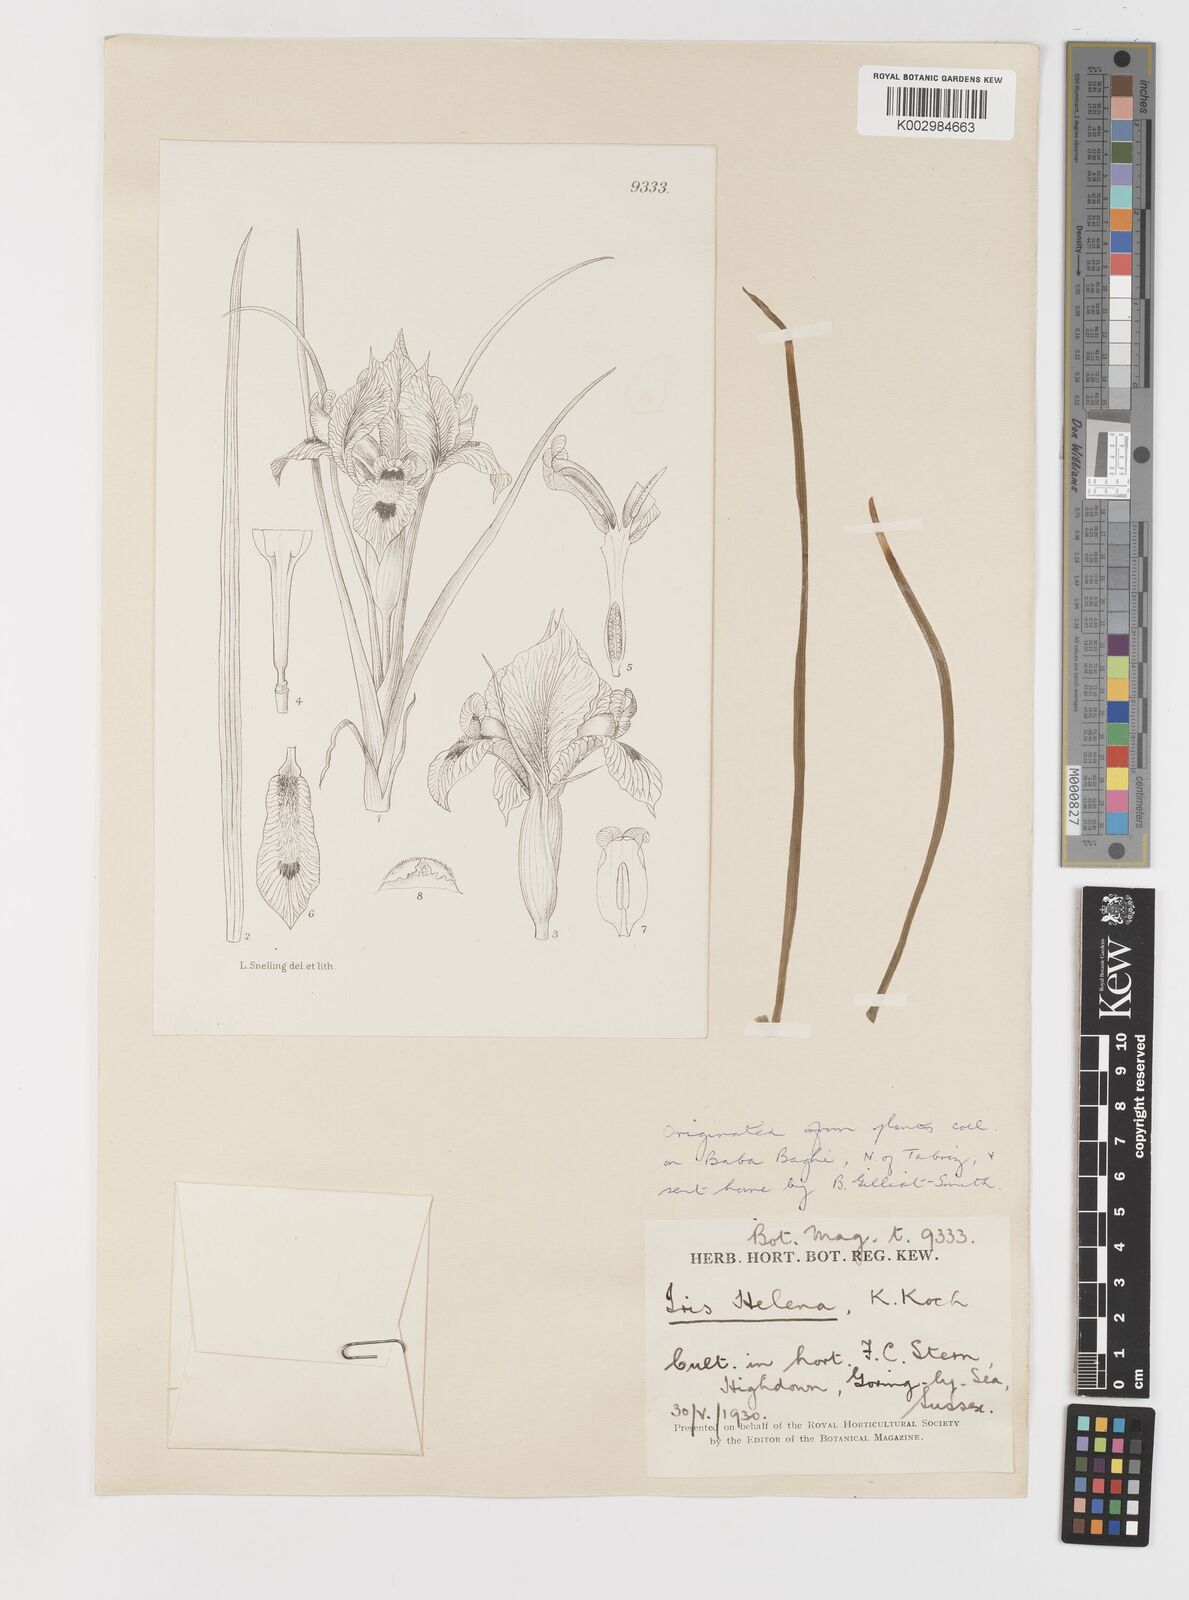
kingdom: Plantae
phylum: Tracheophyta
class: Liliopsida
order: Asparagales
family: Iridaceae
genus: Iris
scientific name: Iris acutiloba
